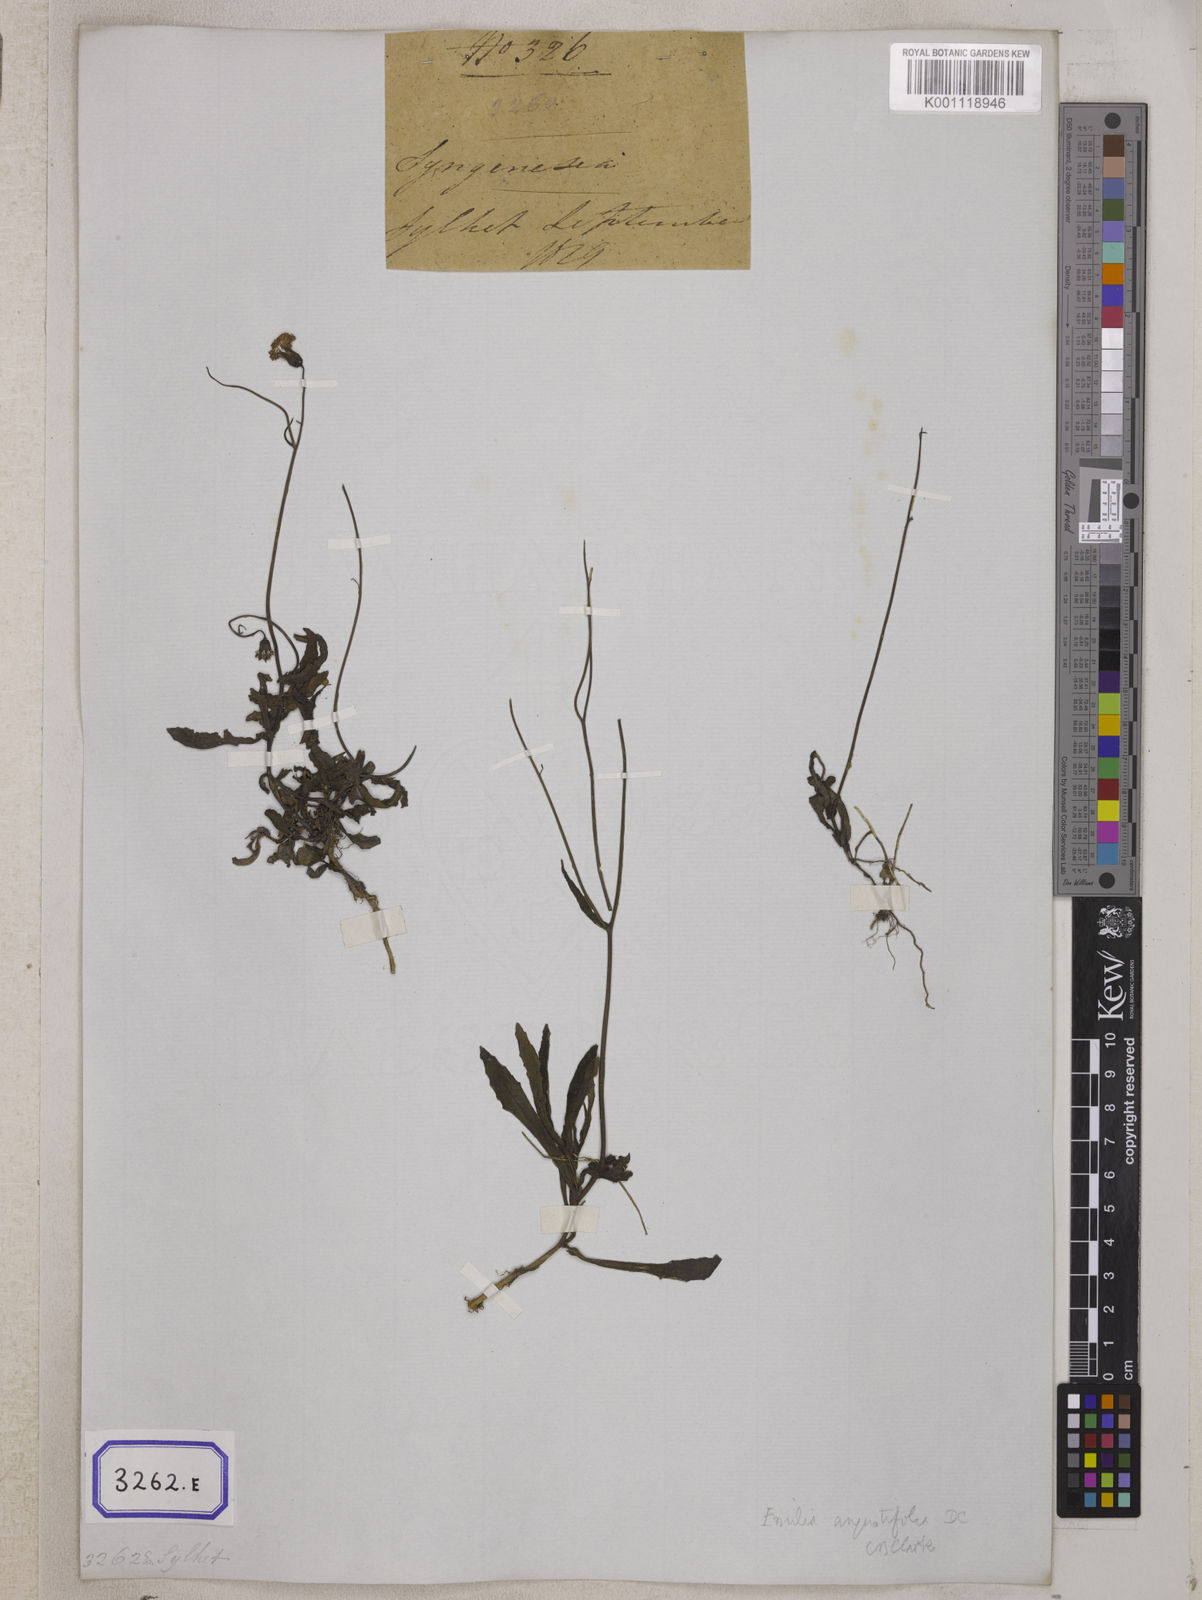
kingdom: Plantae
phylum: Tracheophyta
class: Magnoliopsida
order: Asterales
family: Asteraceae
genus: Emilia
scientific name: Emilia sonchifolia
